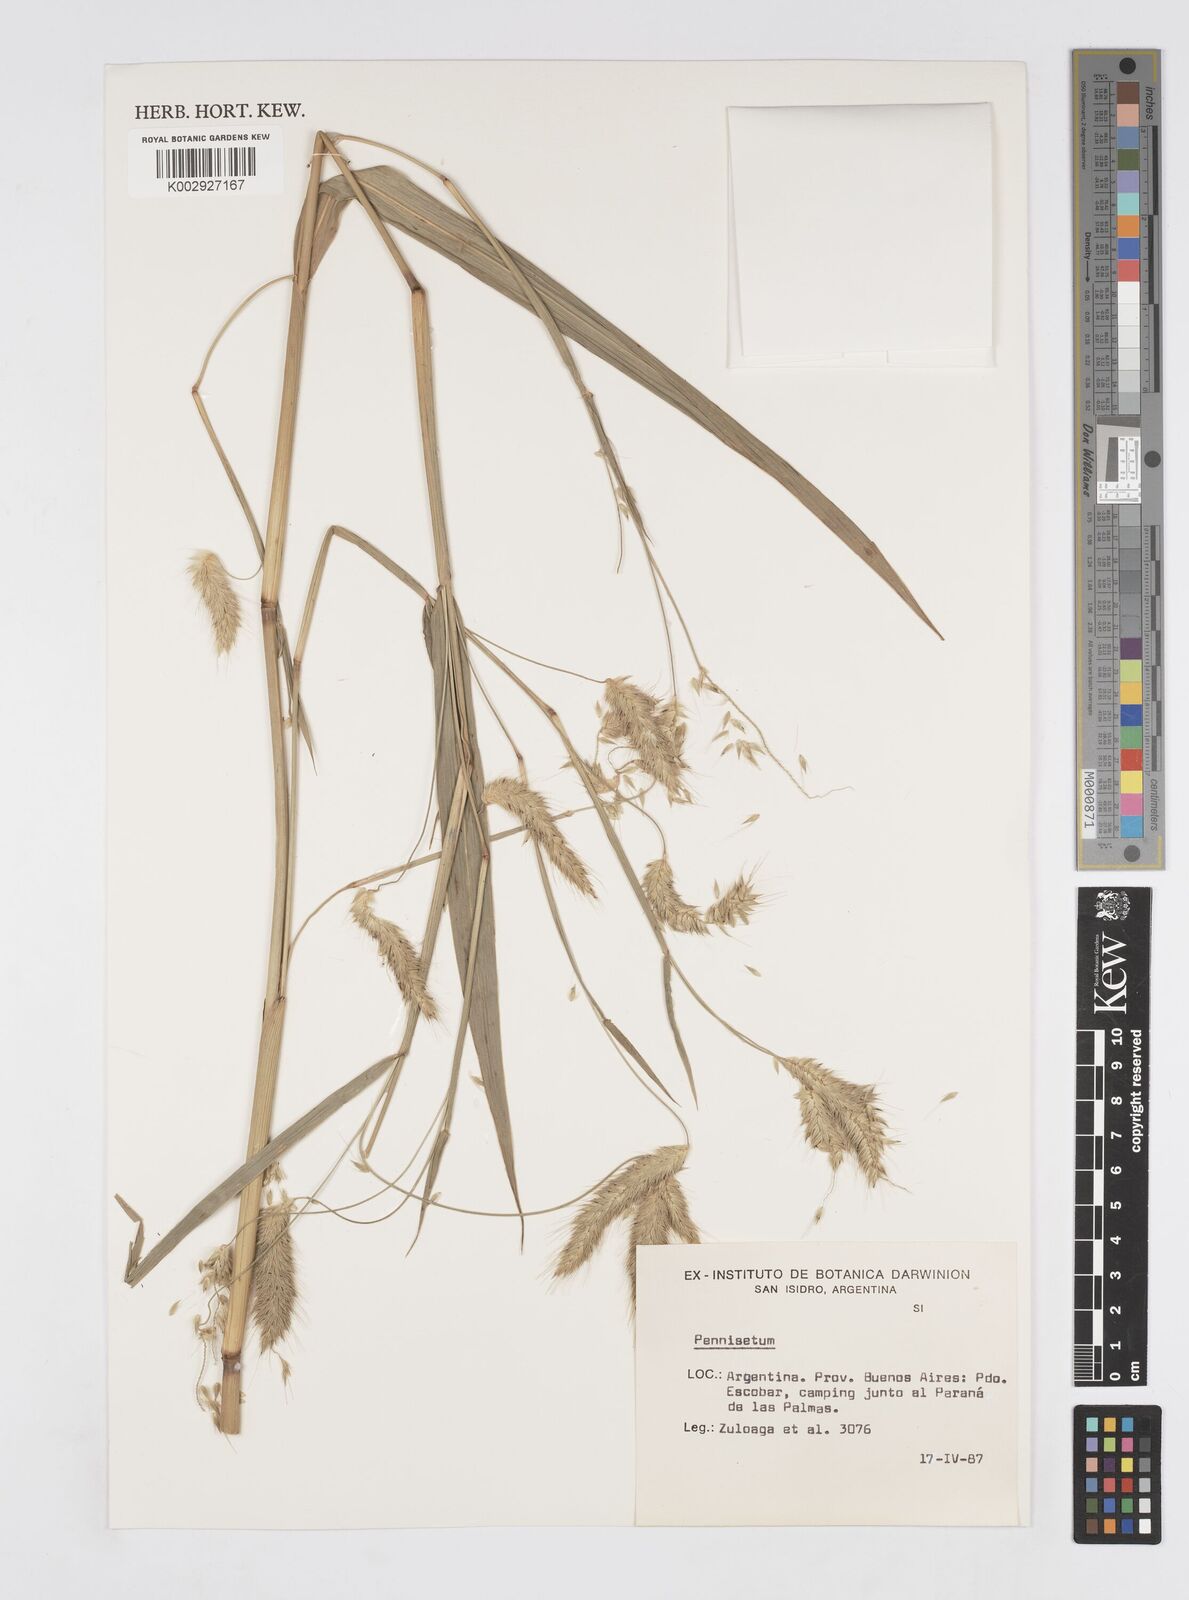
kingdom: Plantae
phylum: Tracheophyta
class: Liliopsida
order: Poales
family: Poaceae
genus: Cenchrus
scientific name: Cenchrus latifolius
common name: Sandbur
